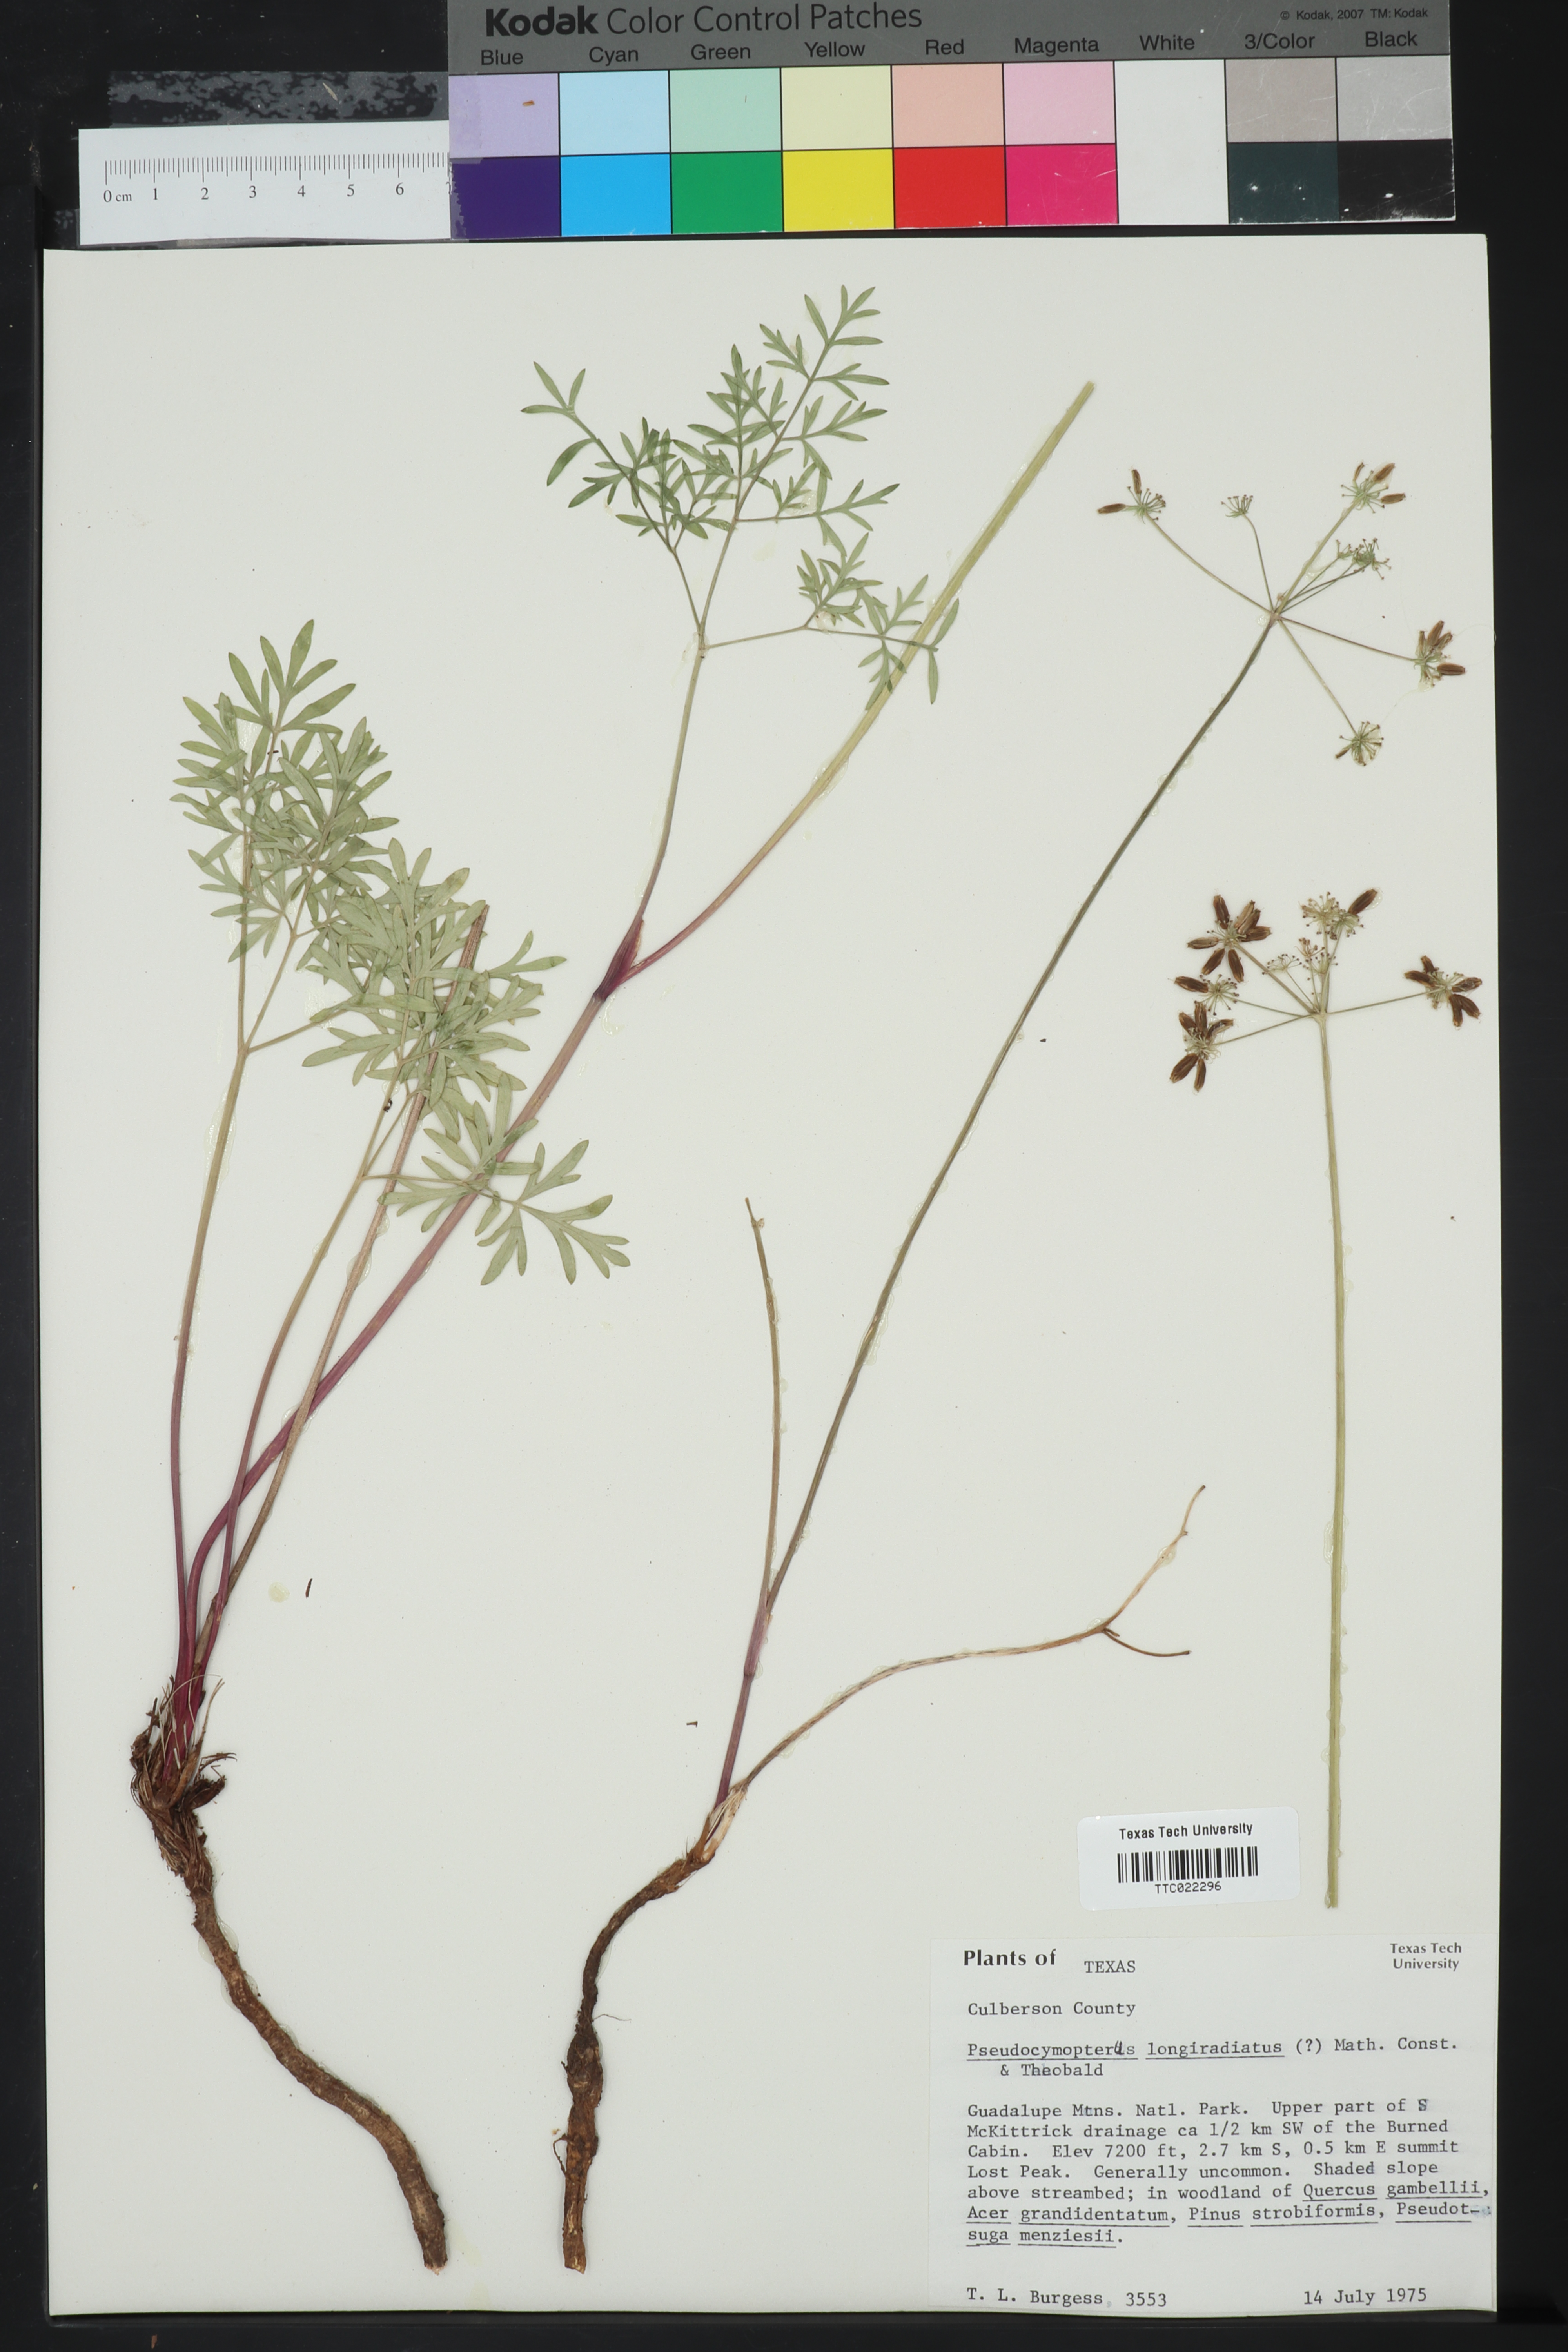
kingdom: Plantae
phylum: Tracheophyta
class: Magnoliopsida
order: Apiales
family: Apiaceae
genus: Pseudocymopterus
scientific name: Pseudocymopterus longiradiatus
